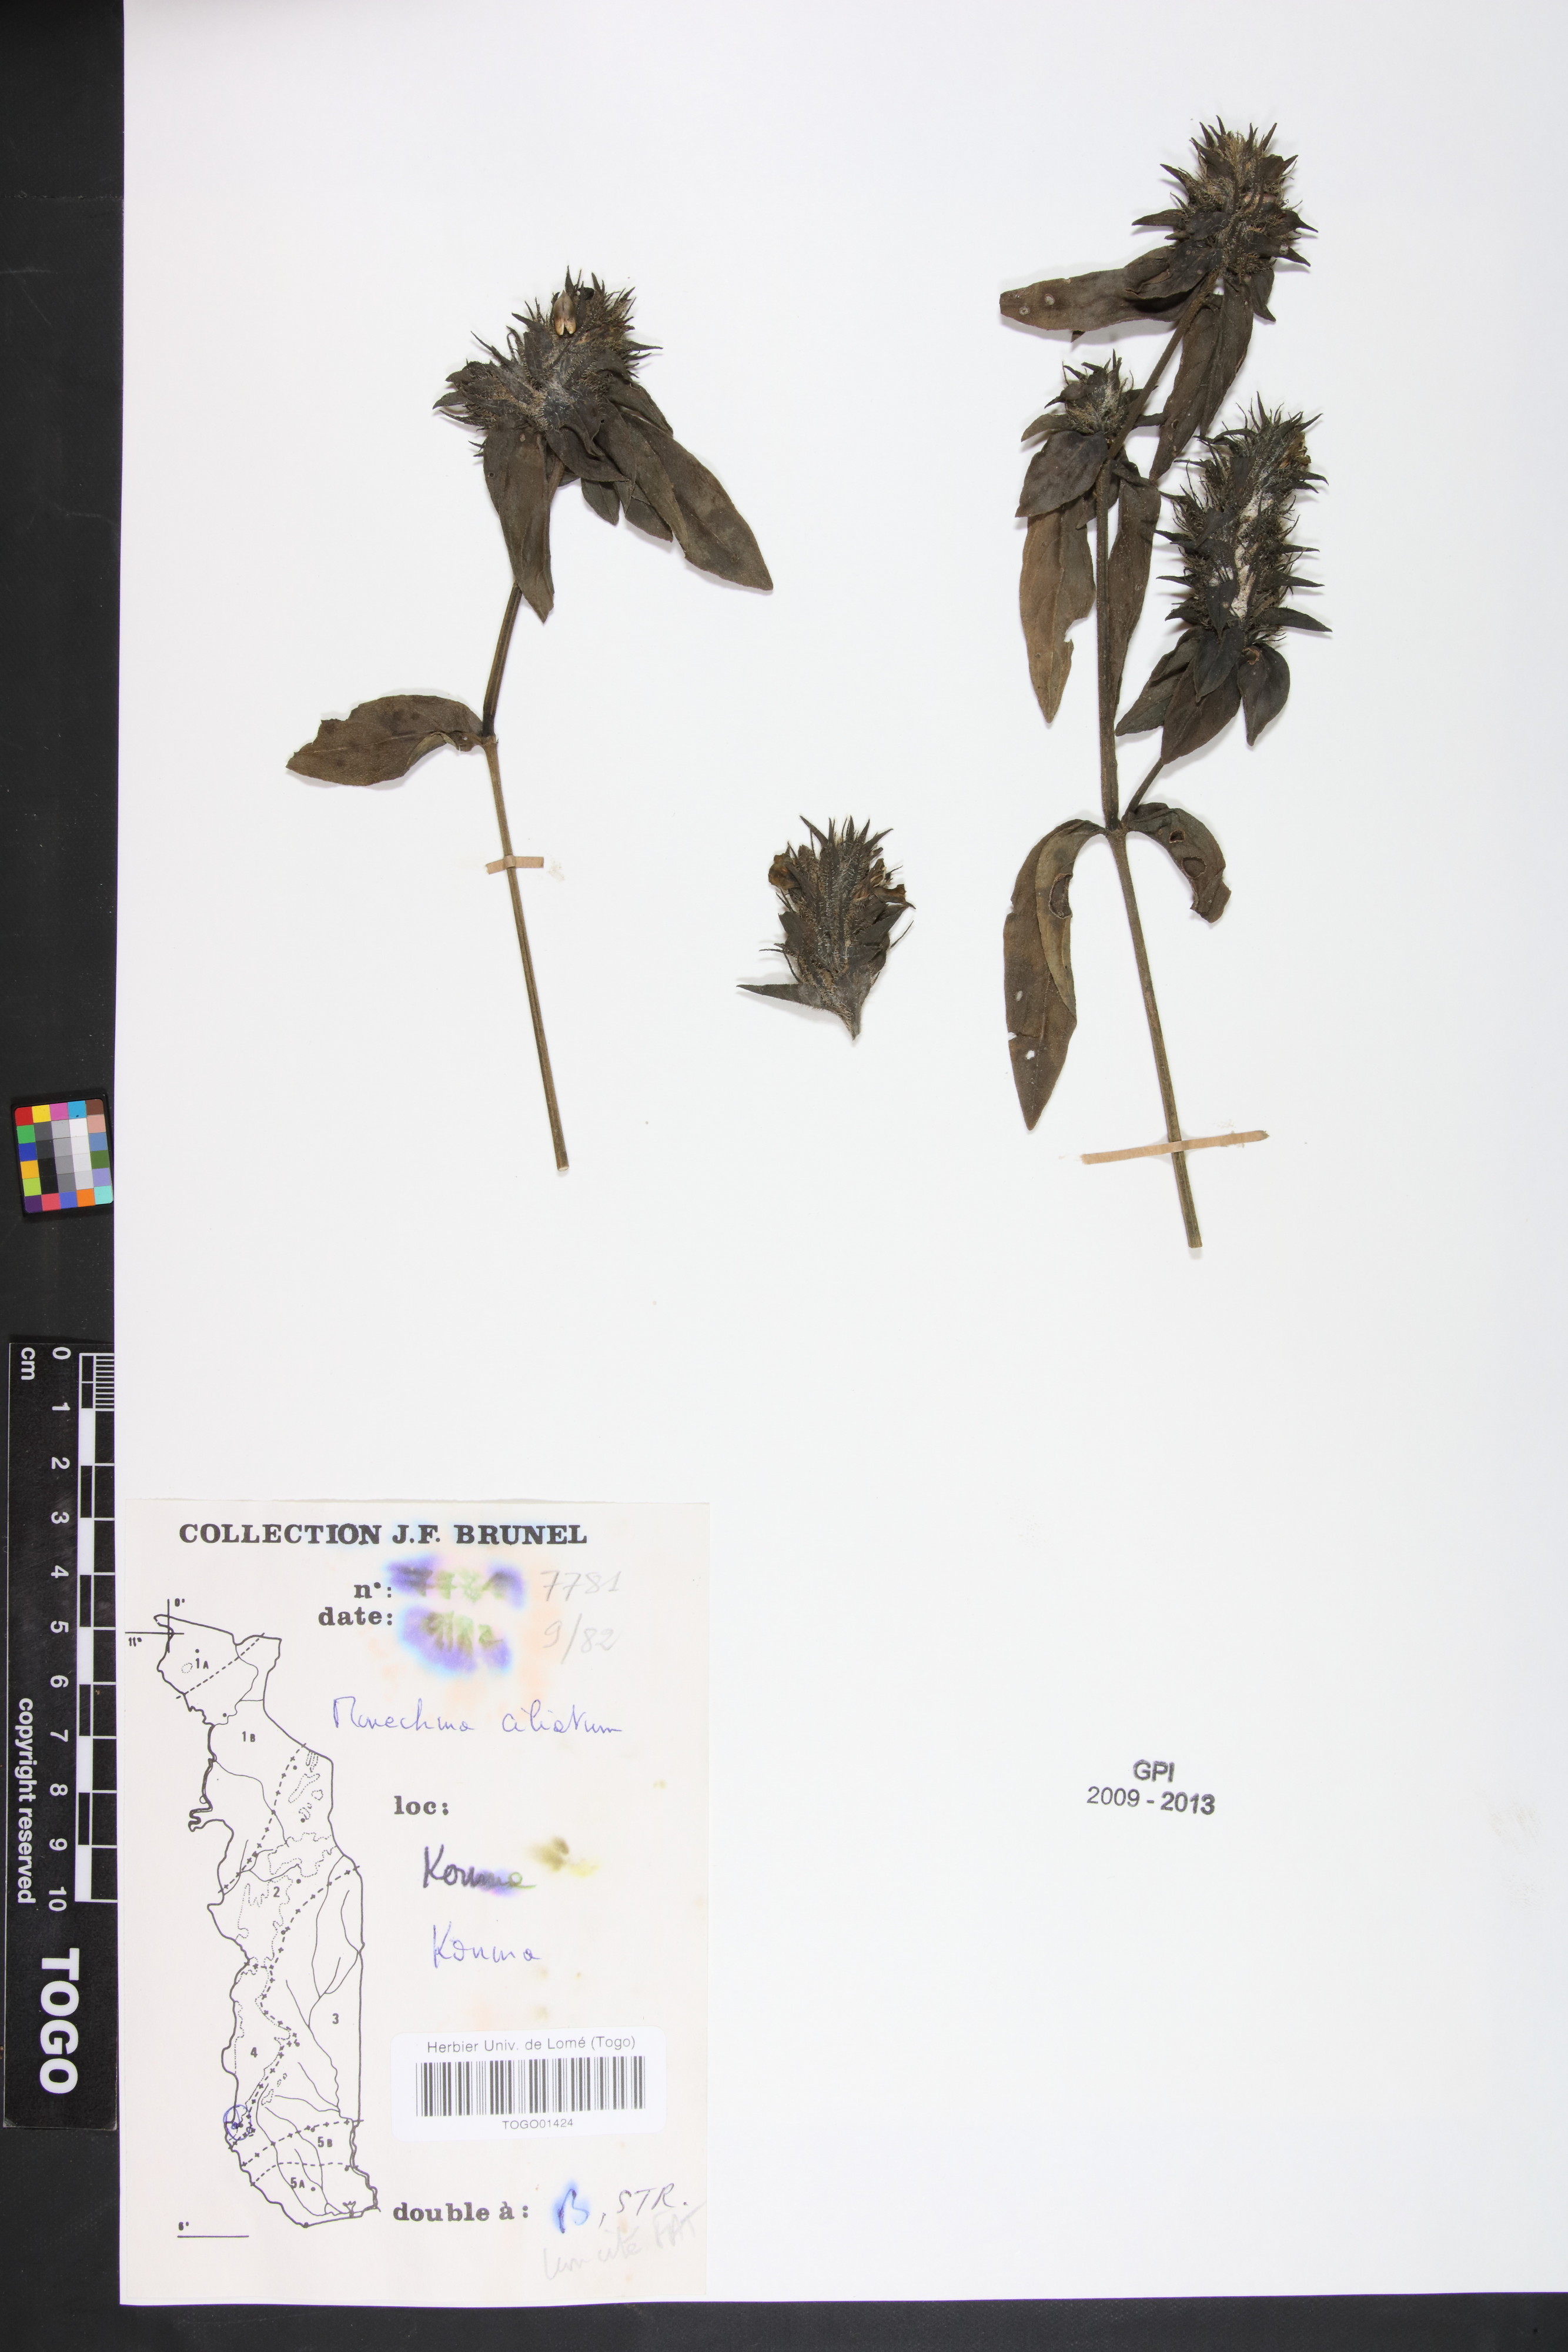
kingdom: Plantae
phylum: Tracheophyta
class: Magnoliopsida
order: Lamiales
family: Acanthaceae
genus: Pogonospermum
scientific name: Pogonospermum ciliare
